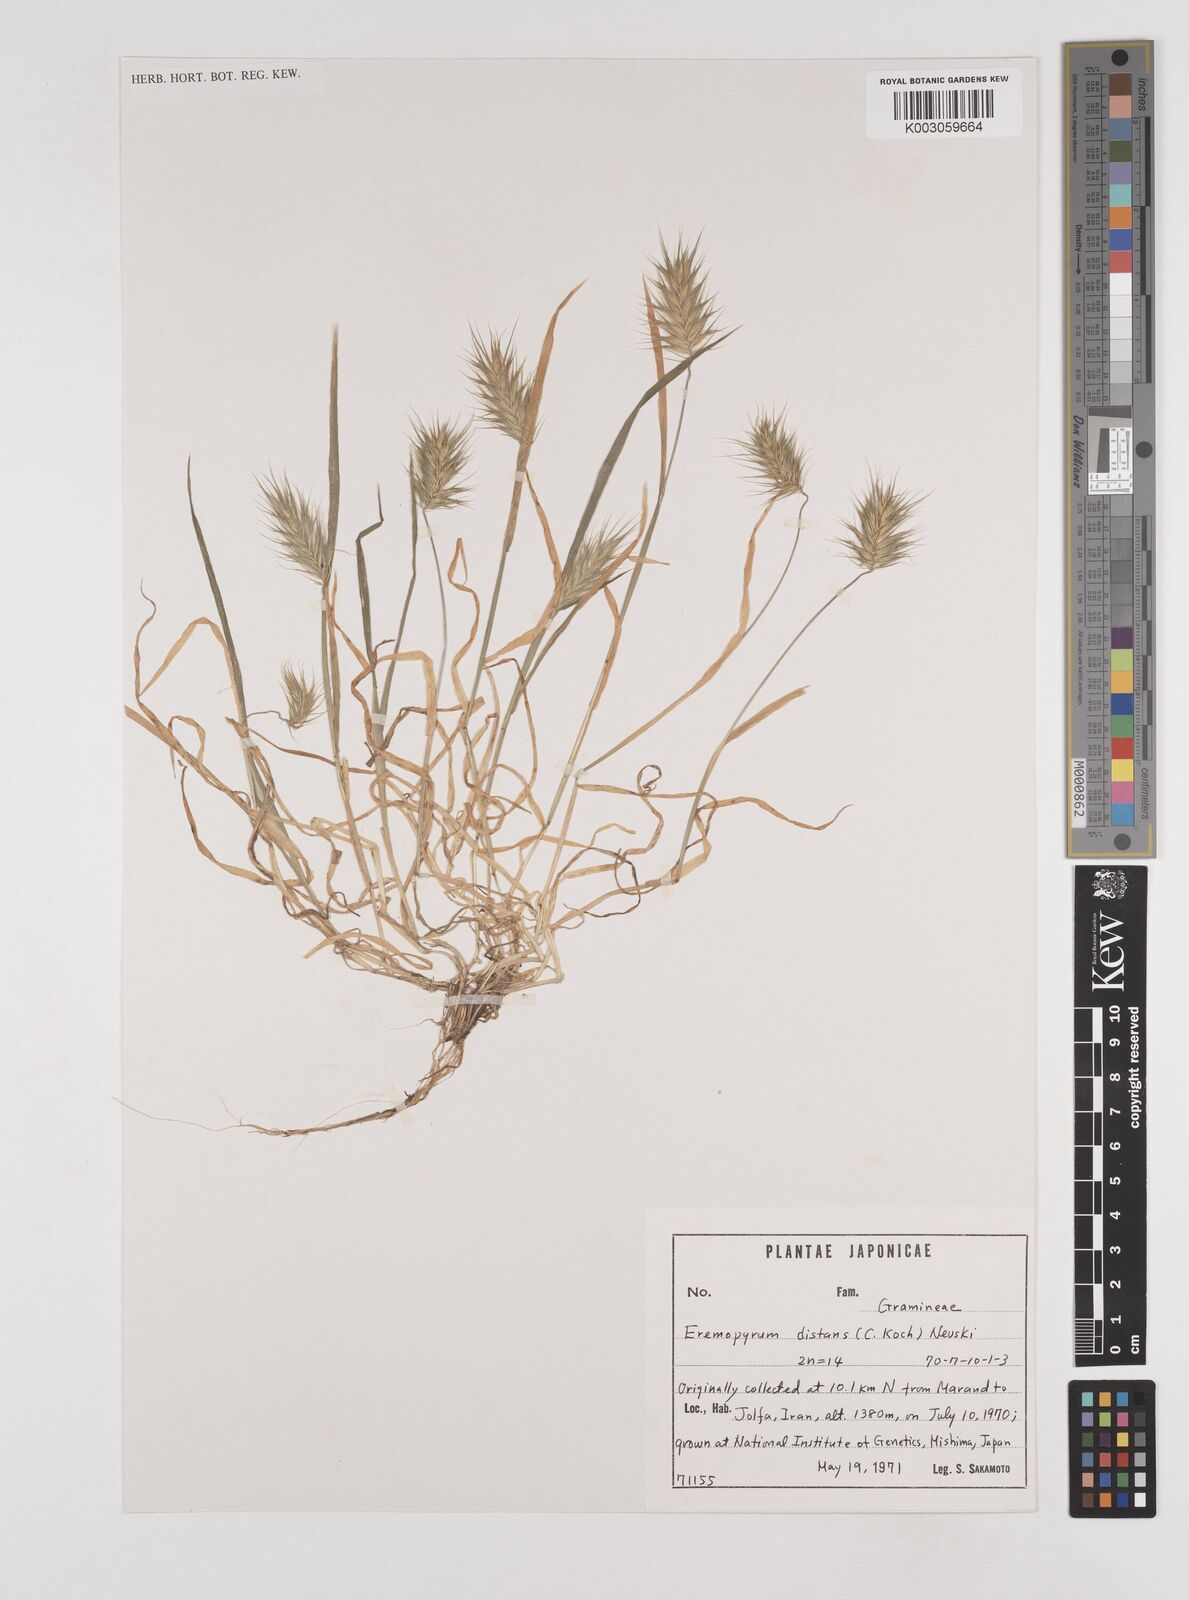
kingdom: Plantae
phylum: Tracheophyta
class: Liliopsida
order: Poales
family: Poaceae
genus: Eremopyrum
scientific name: Eremopyrum distans
